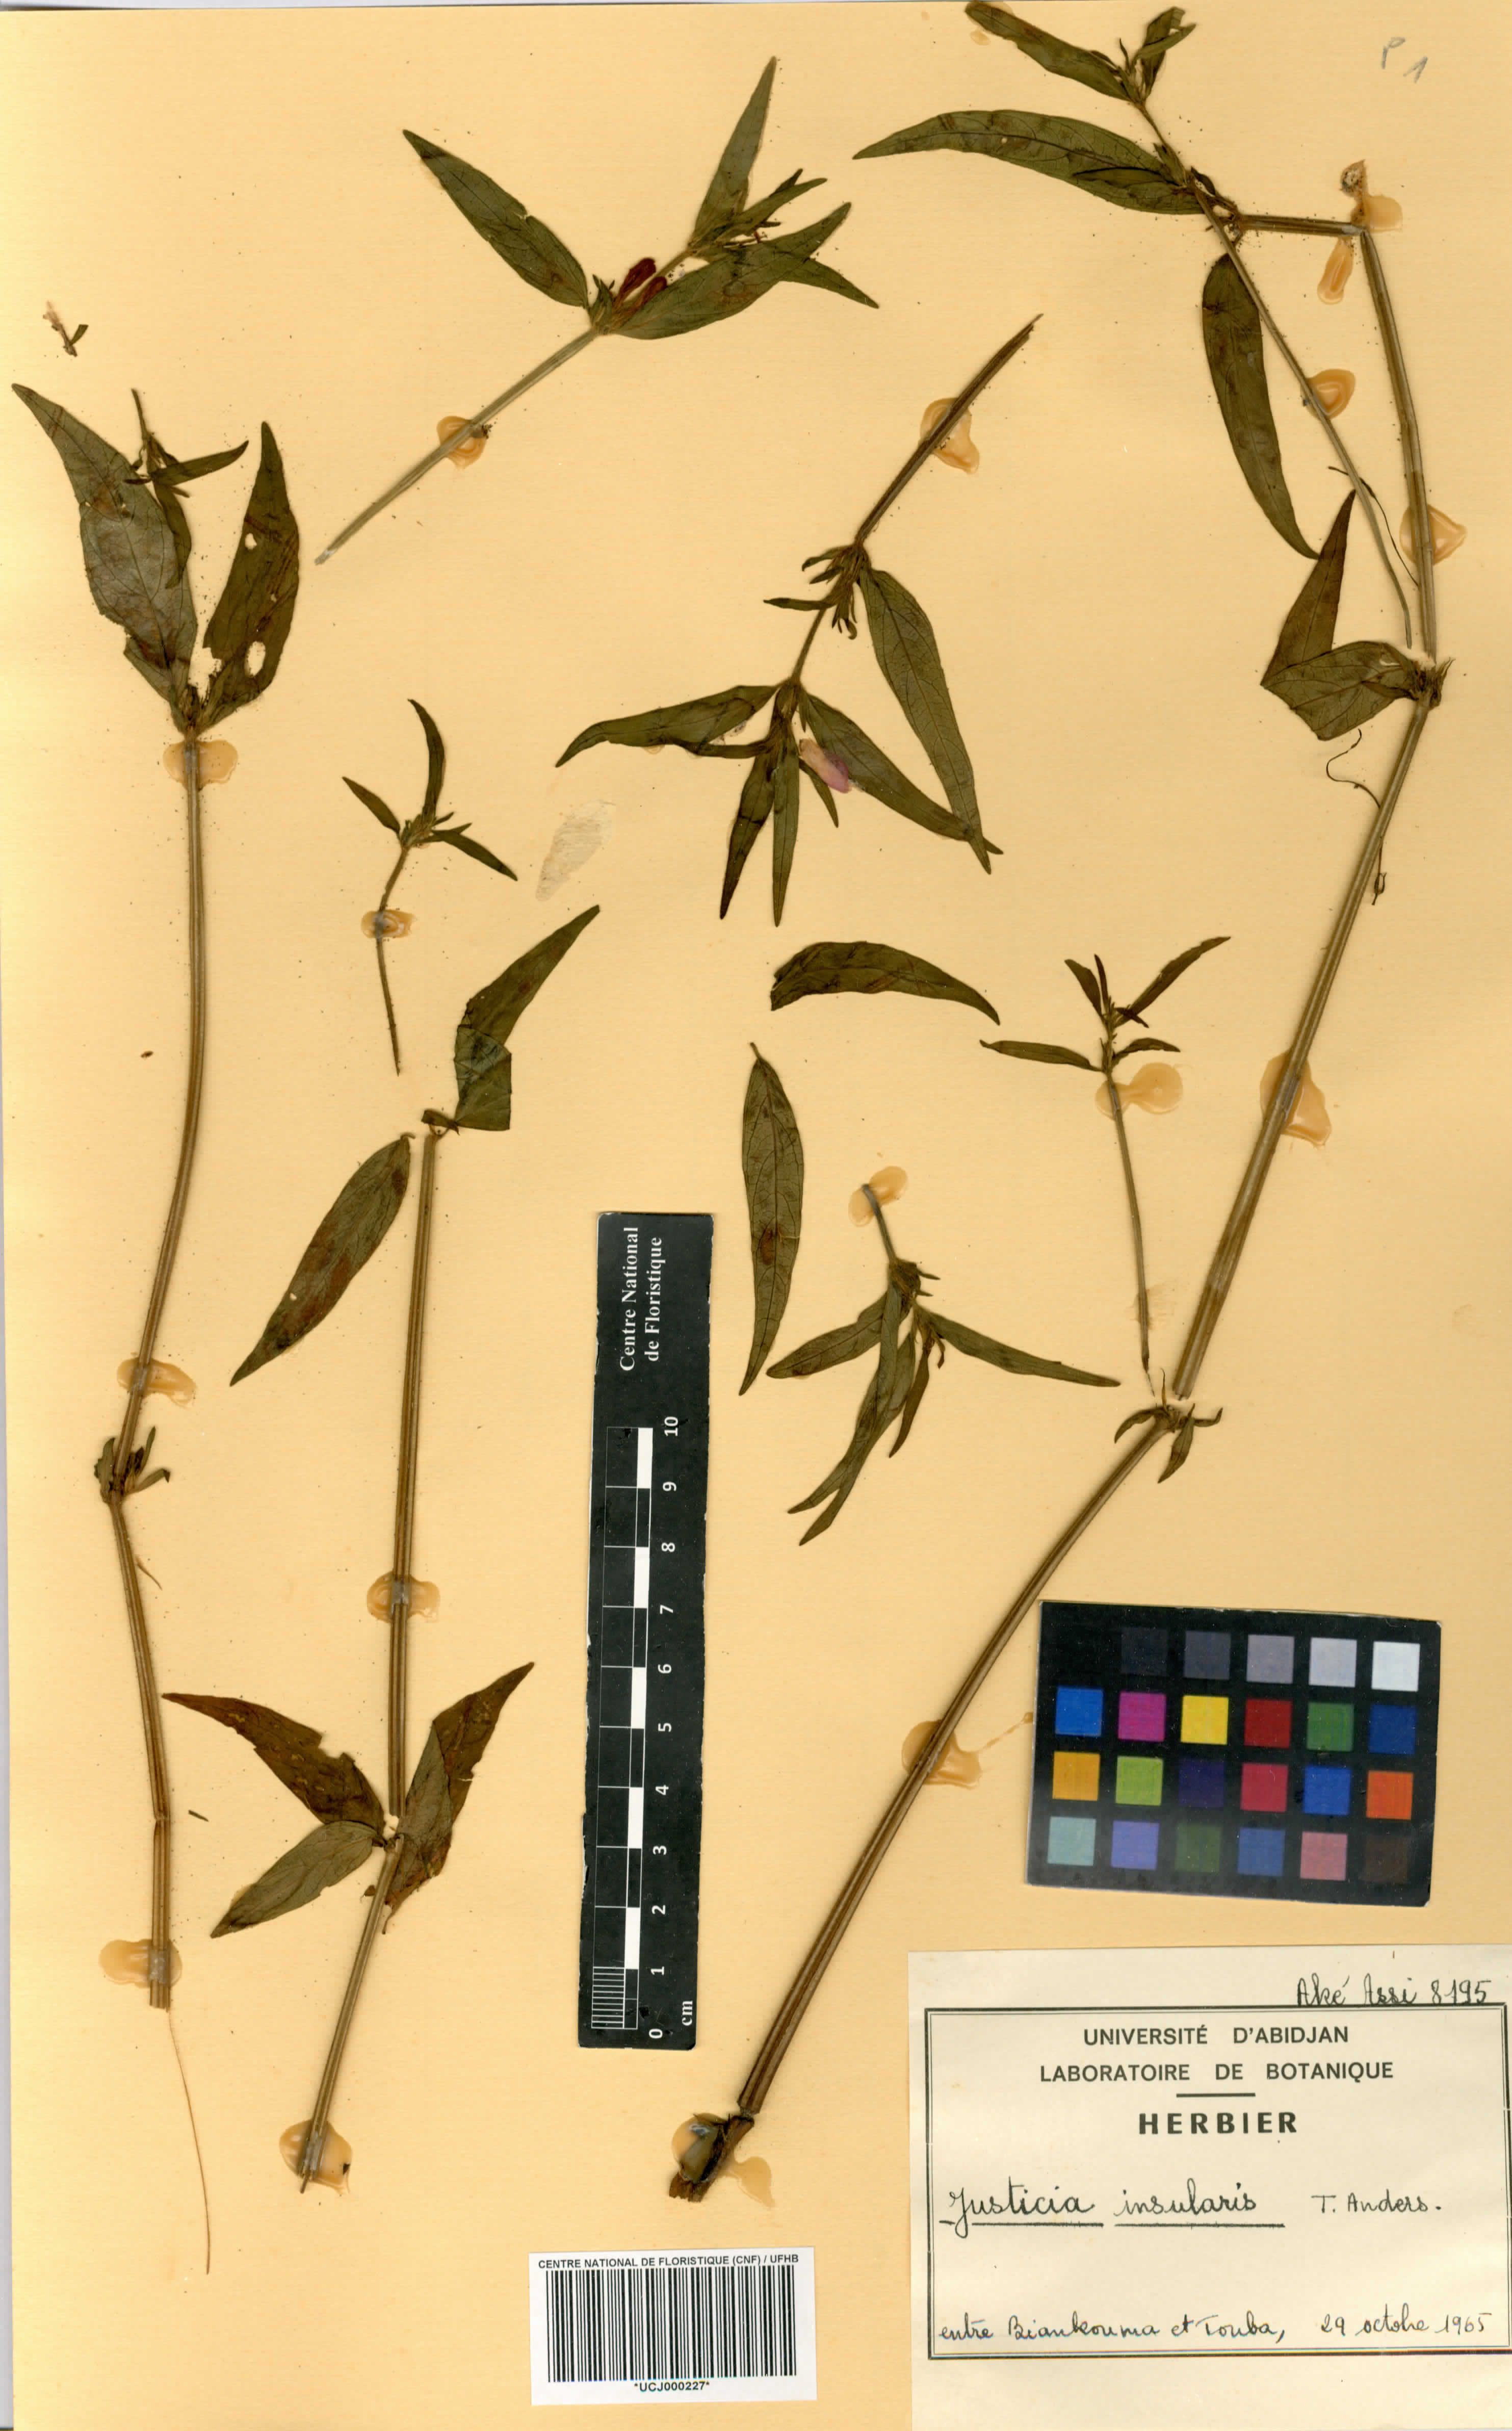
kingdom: Plantae
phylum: Tracheophyta
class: Magnoliopsida
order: Lamiales
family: Acanthaceae
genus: Justicia
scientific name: Justicia insularis
